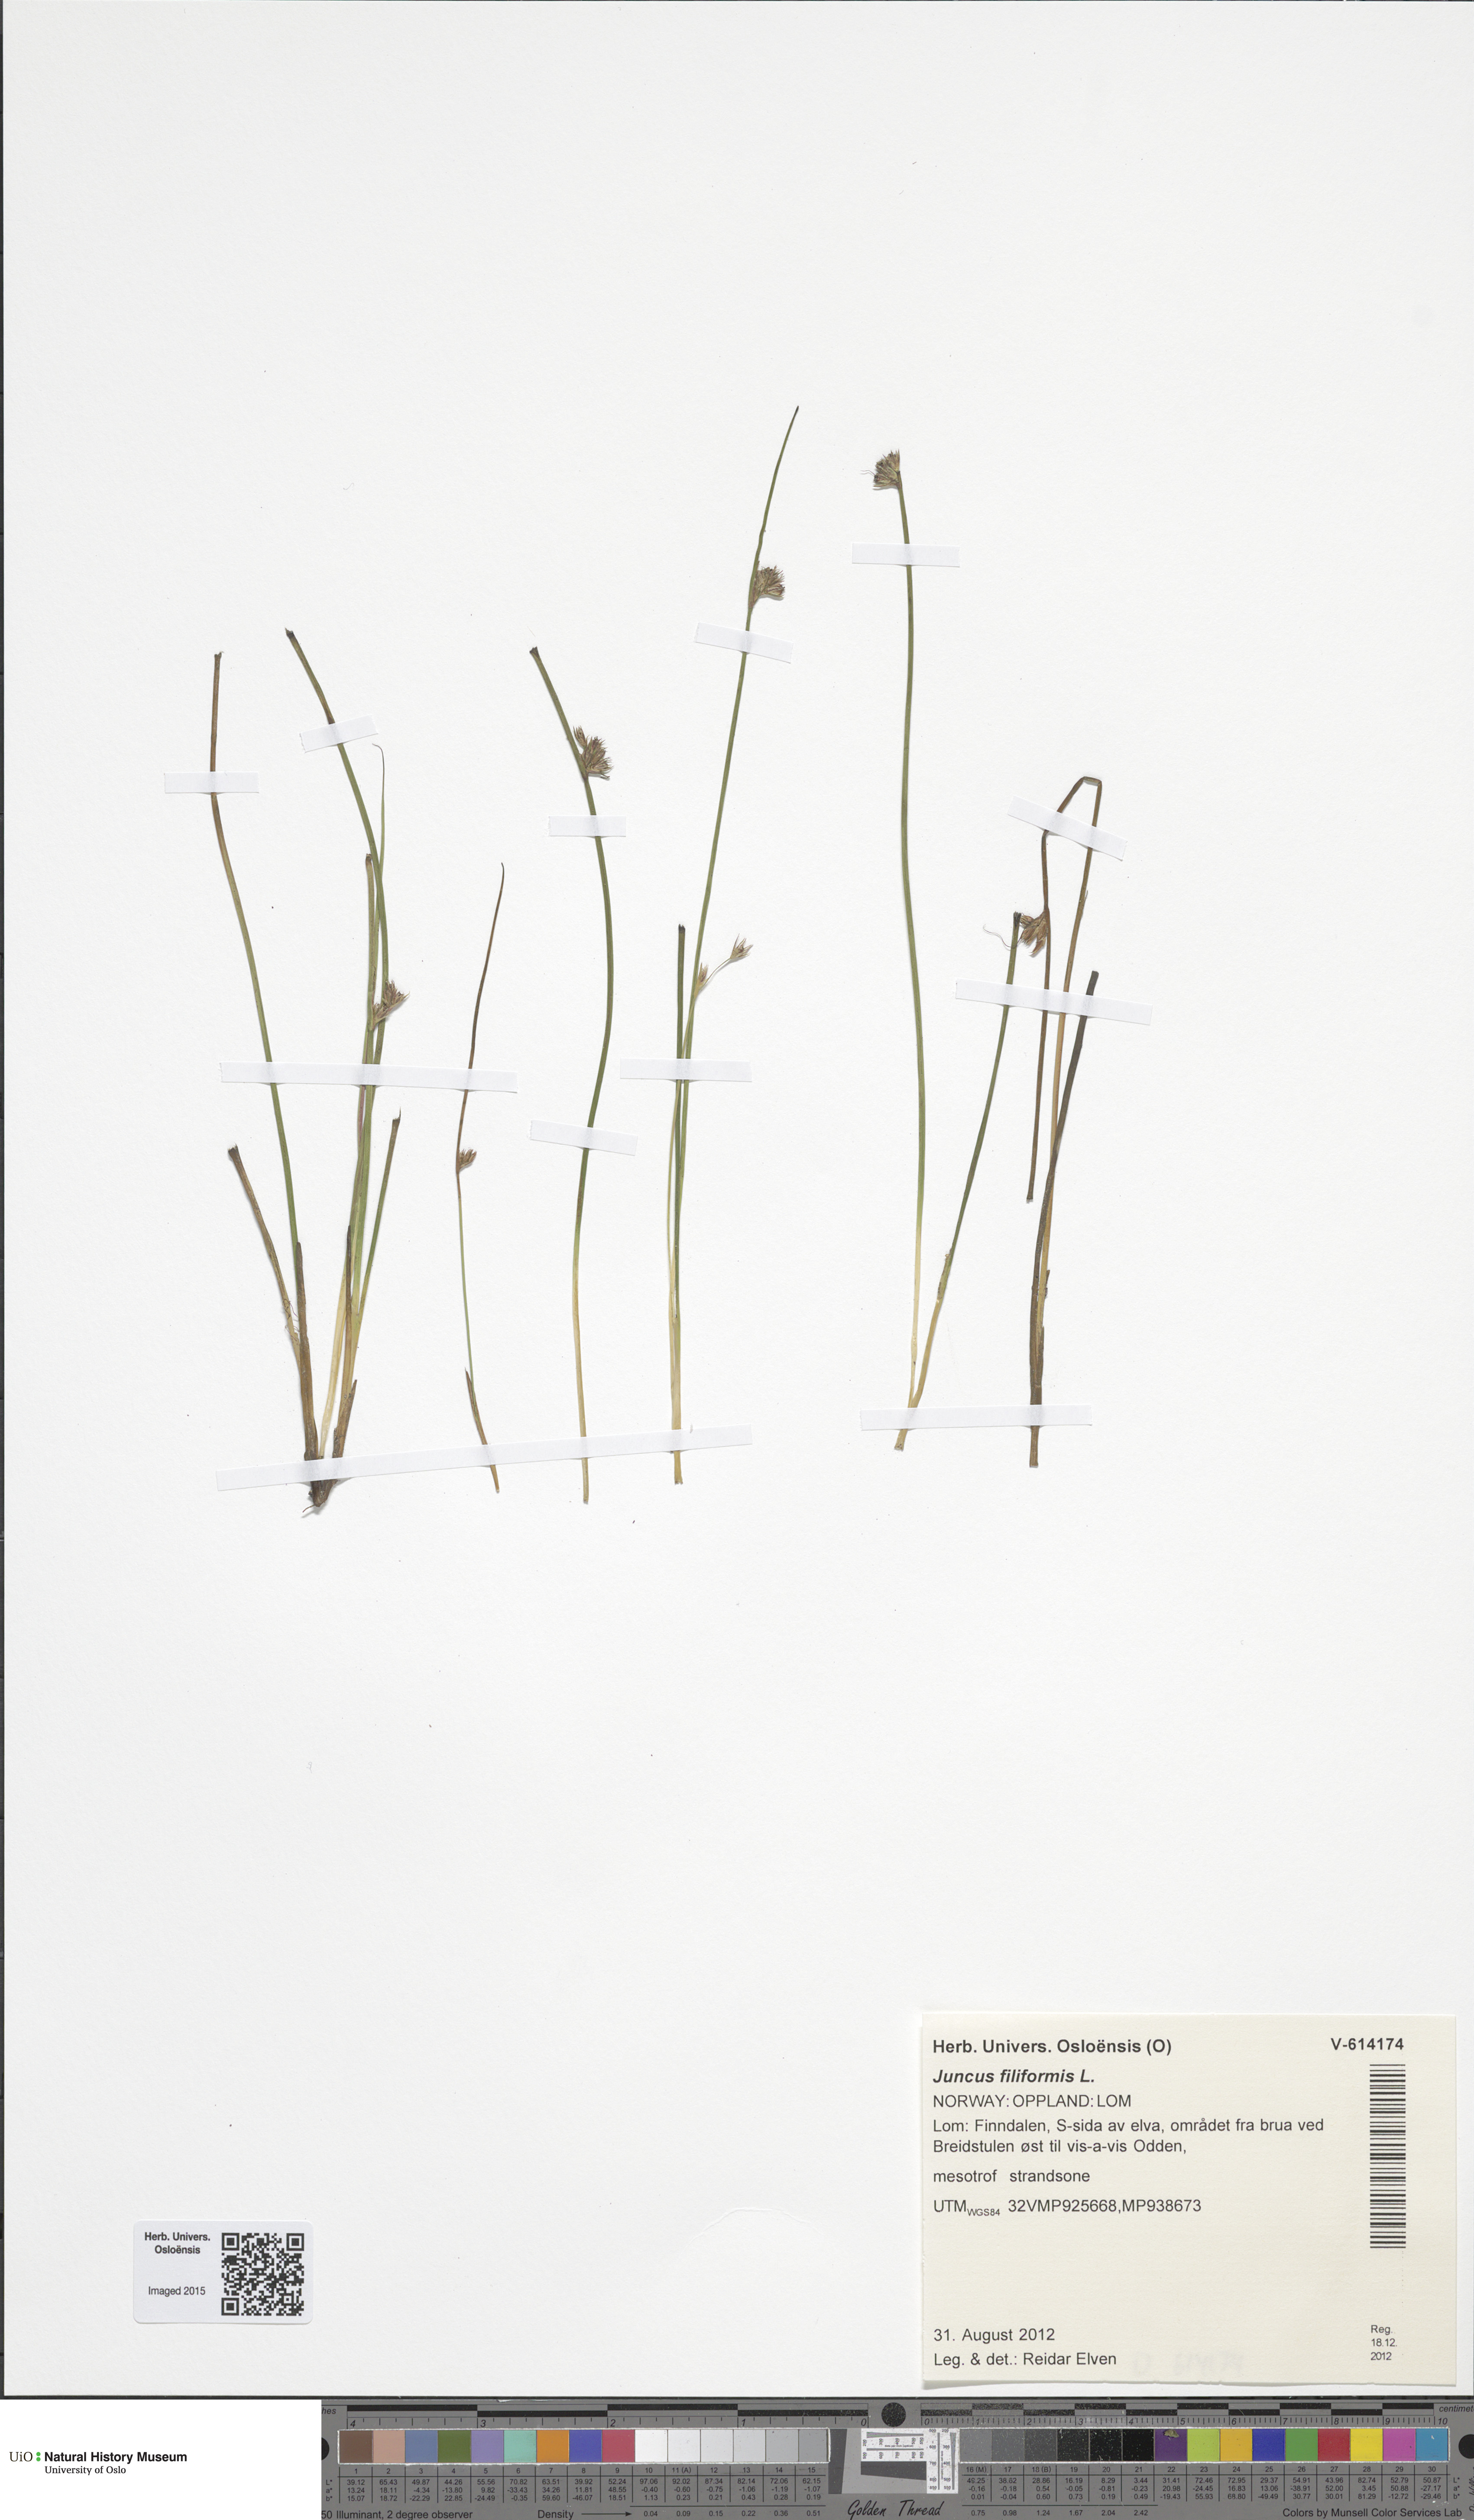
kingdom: Plantae
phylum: Tracheophyta
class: Liliopsida
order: Poales
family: Juncaceae
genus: Juncus
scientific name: Juncus filiformis
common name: Thread rush
